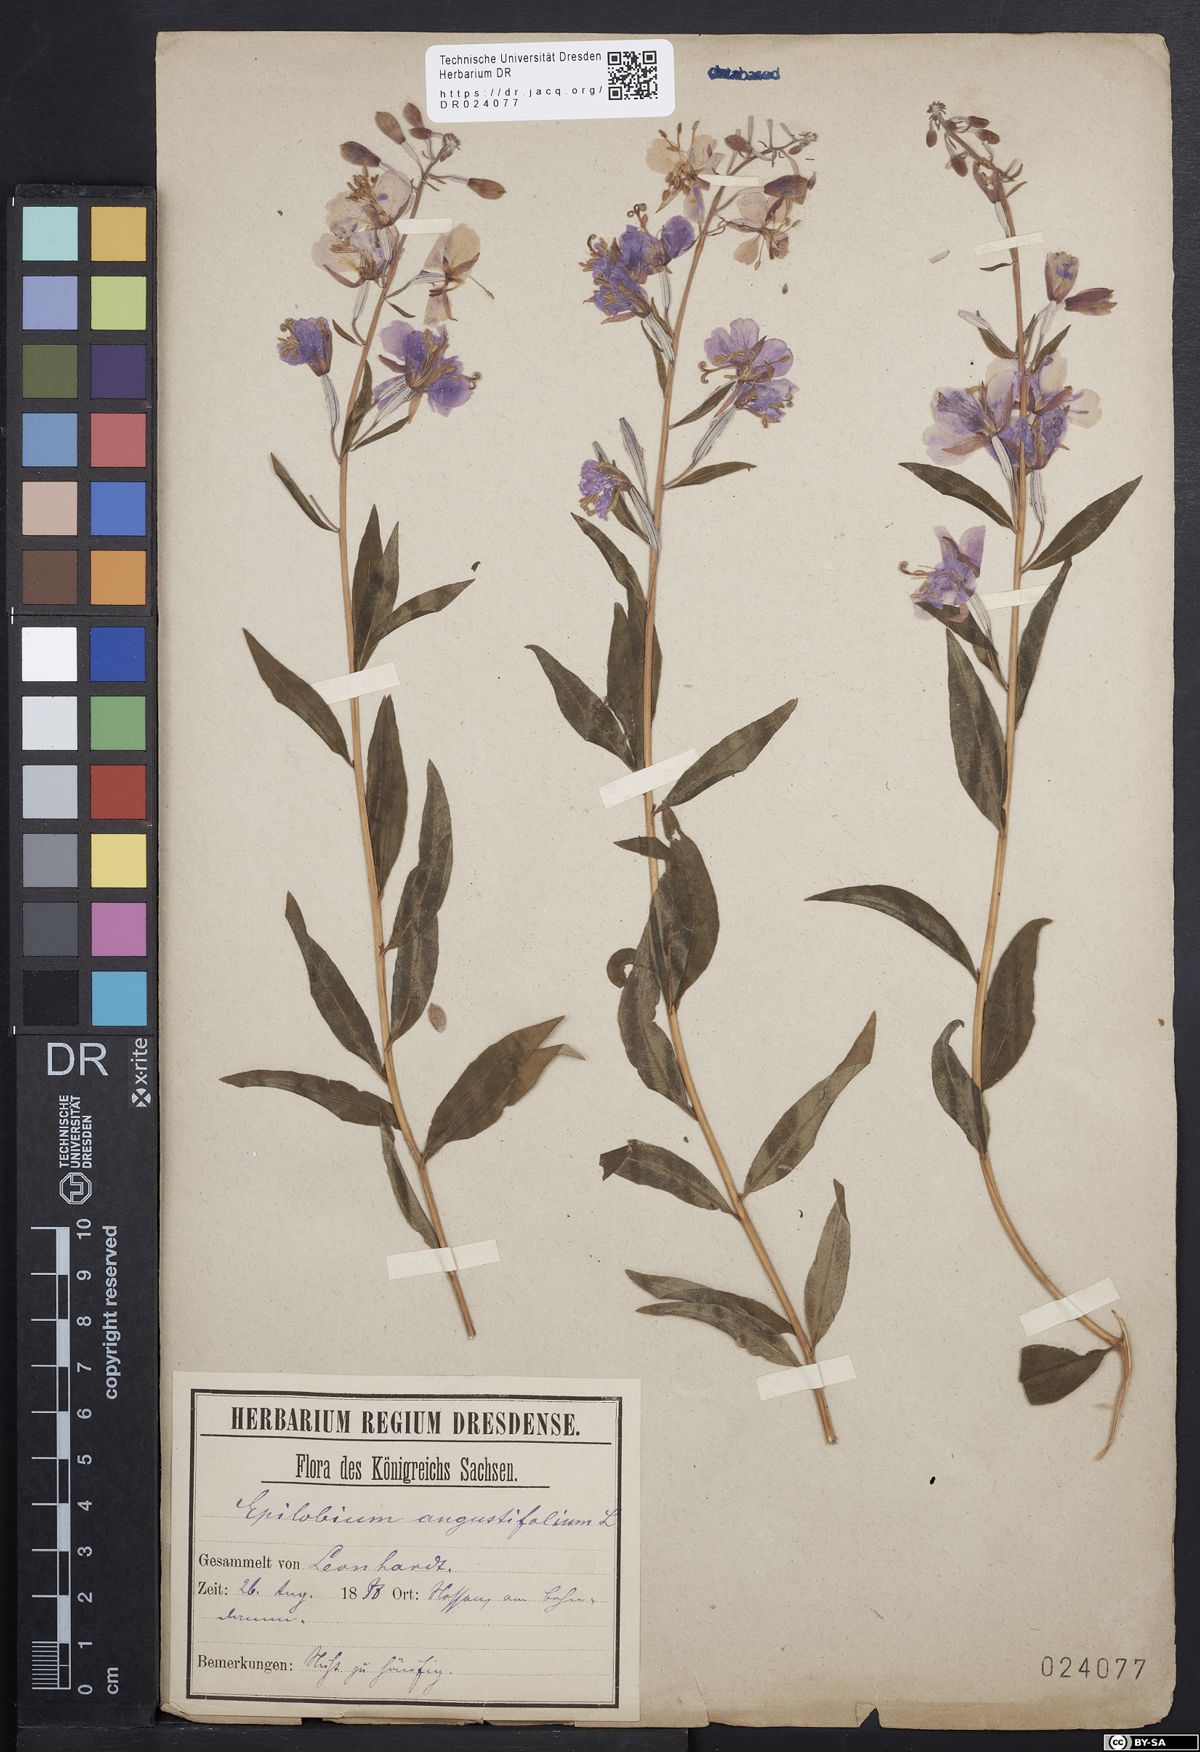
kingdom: Plantae
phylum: Tracheophyta
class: Magnoliopsida
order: Myrtales
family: Onagraceae
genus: Chamaenerion
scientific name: Chamaenerion angustifolium
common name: Fireweed
